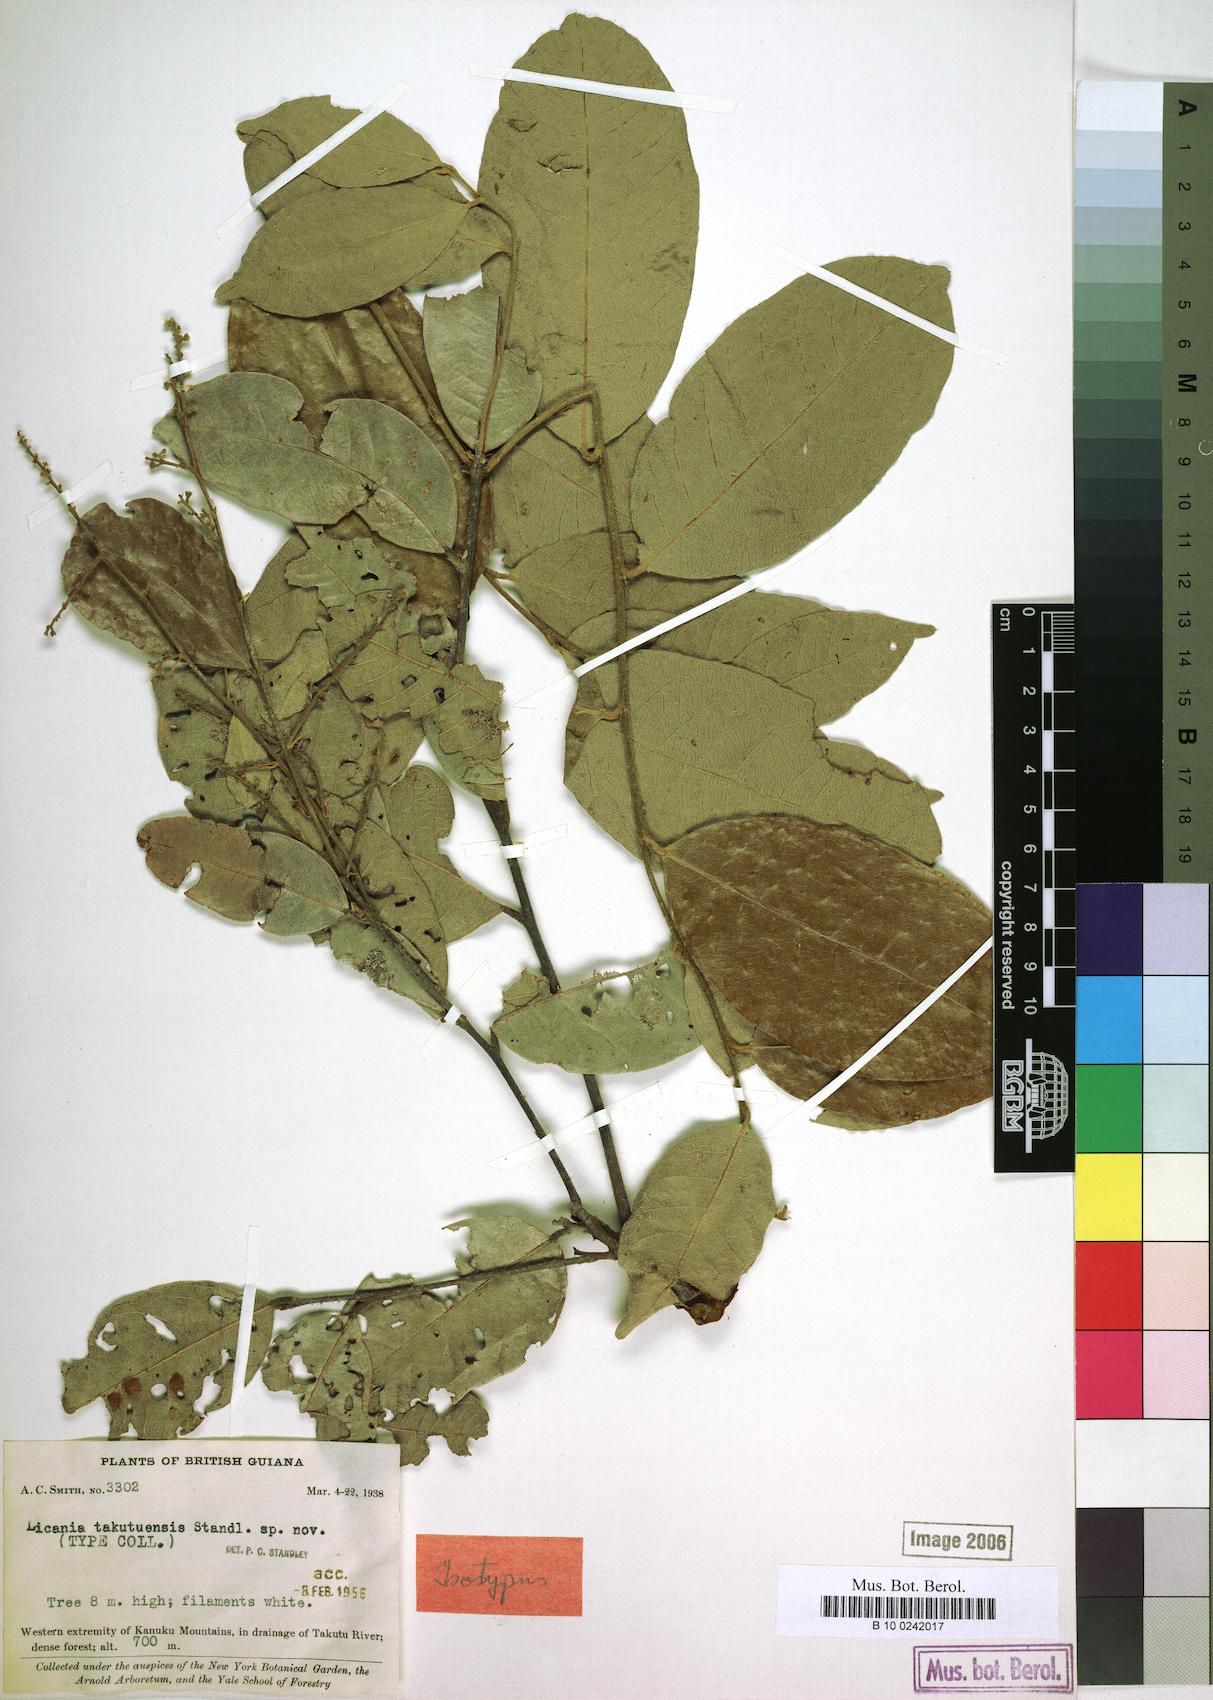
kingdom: Plantae
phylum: Tracheophyta
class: Magnoliopsida
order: Malpighiales
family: Chrysobalanaceae
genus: Leptobalanus
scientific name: Leptobalanus octandrus
